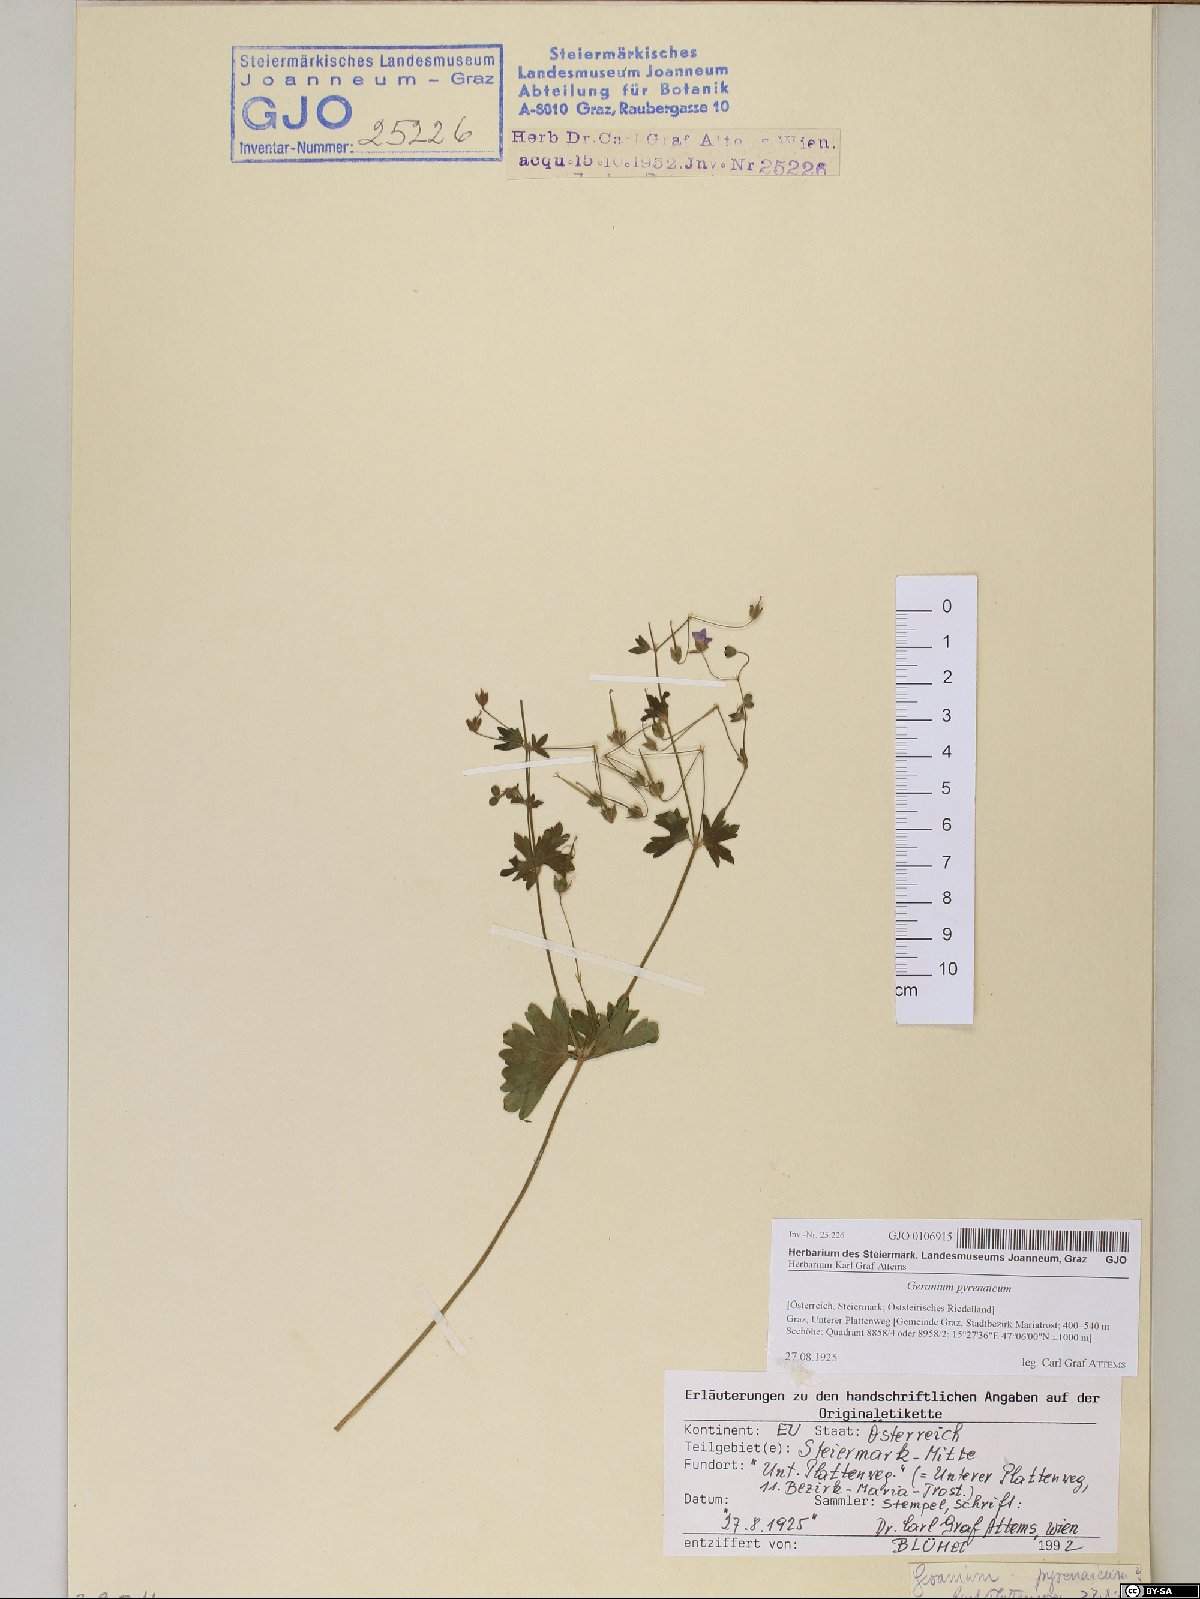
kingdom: Plantae
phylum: Tracheophyta
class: Magnoliopsida
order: Geraniales
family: Geraniaceae
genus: Geranium
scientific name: Geranium pyrenaicum
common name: Hedgerow crane's-bill
